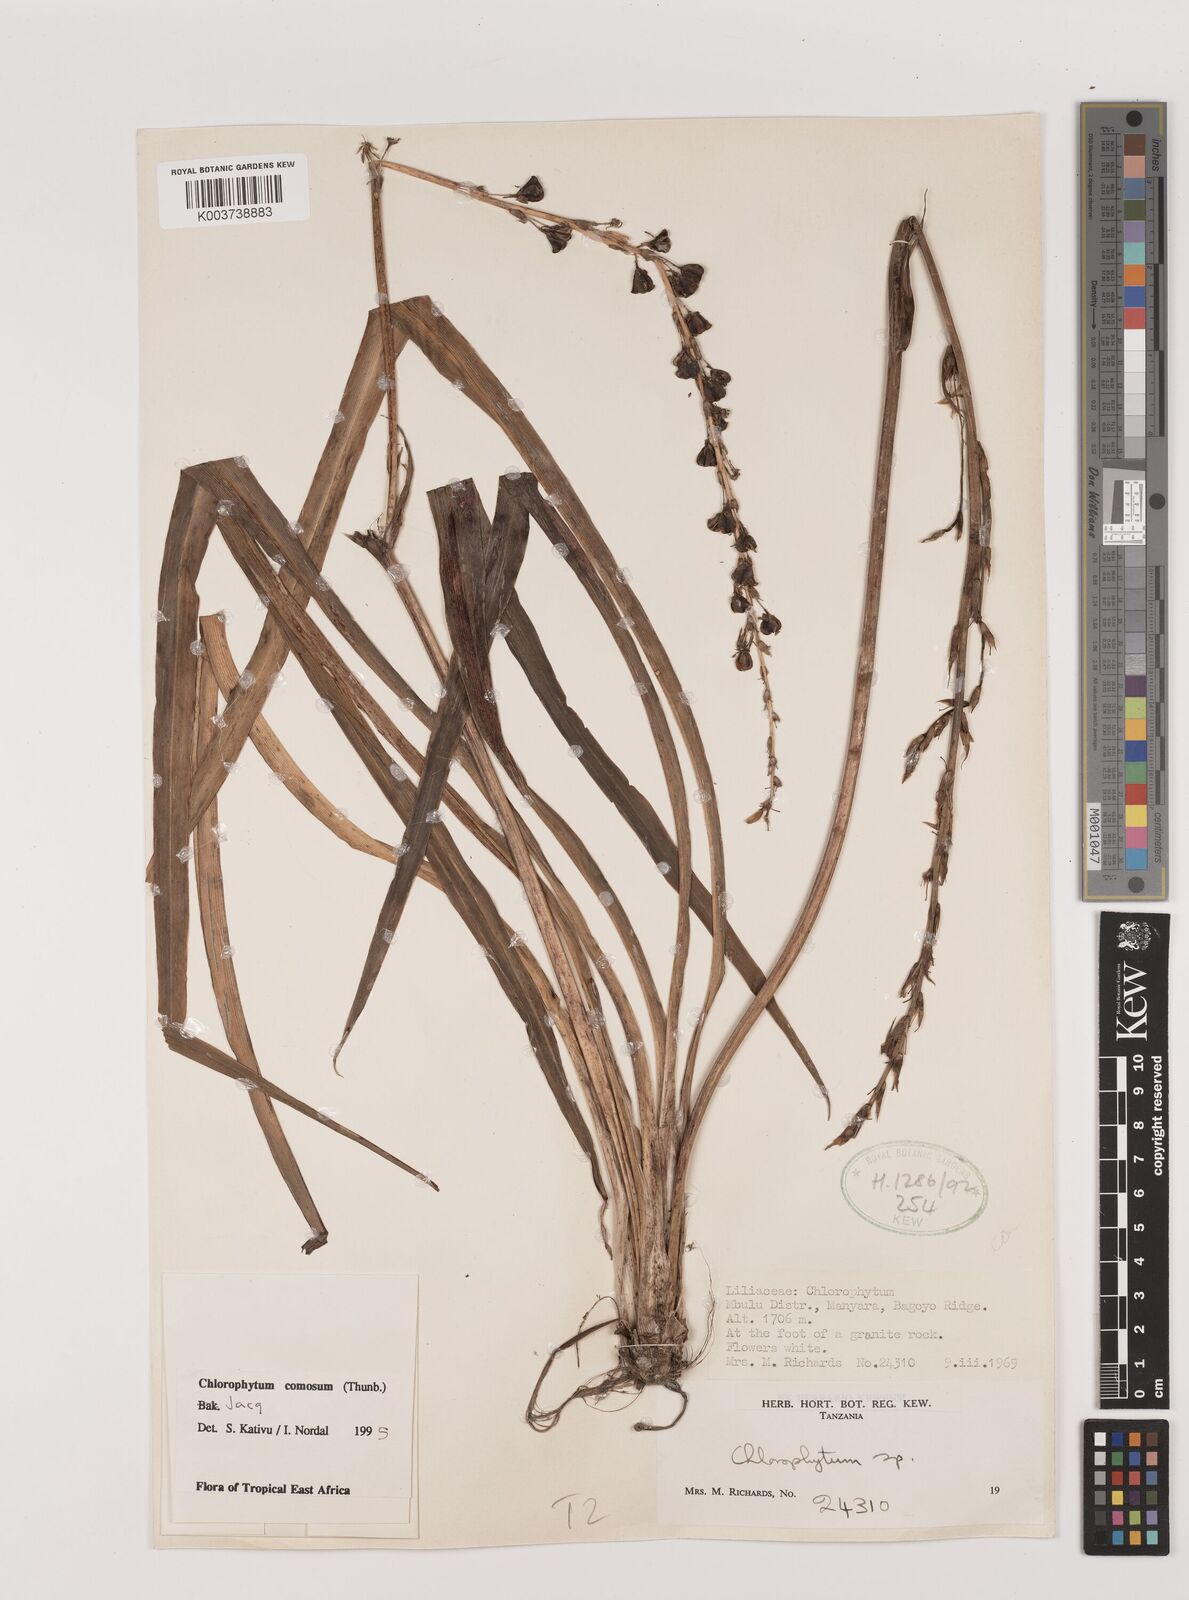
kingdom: Plantae
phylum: Tracheophyta
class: Liliopsida
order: Asparagales
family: Asparagaceae
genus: Chlorophytum
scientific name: Chlorophytum comosum
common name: Spider plant
